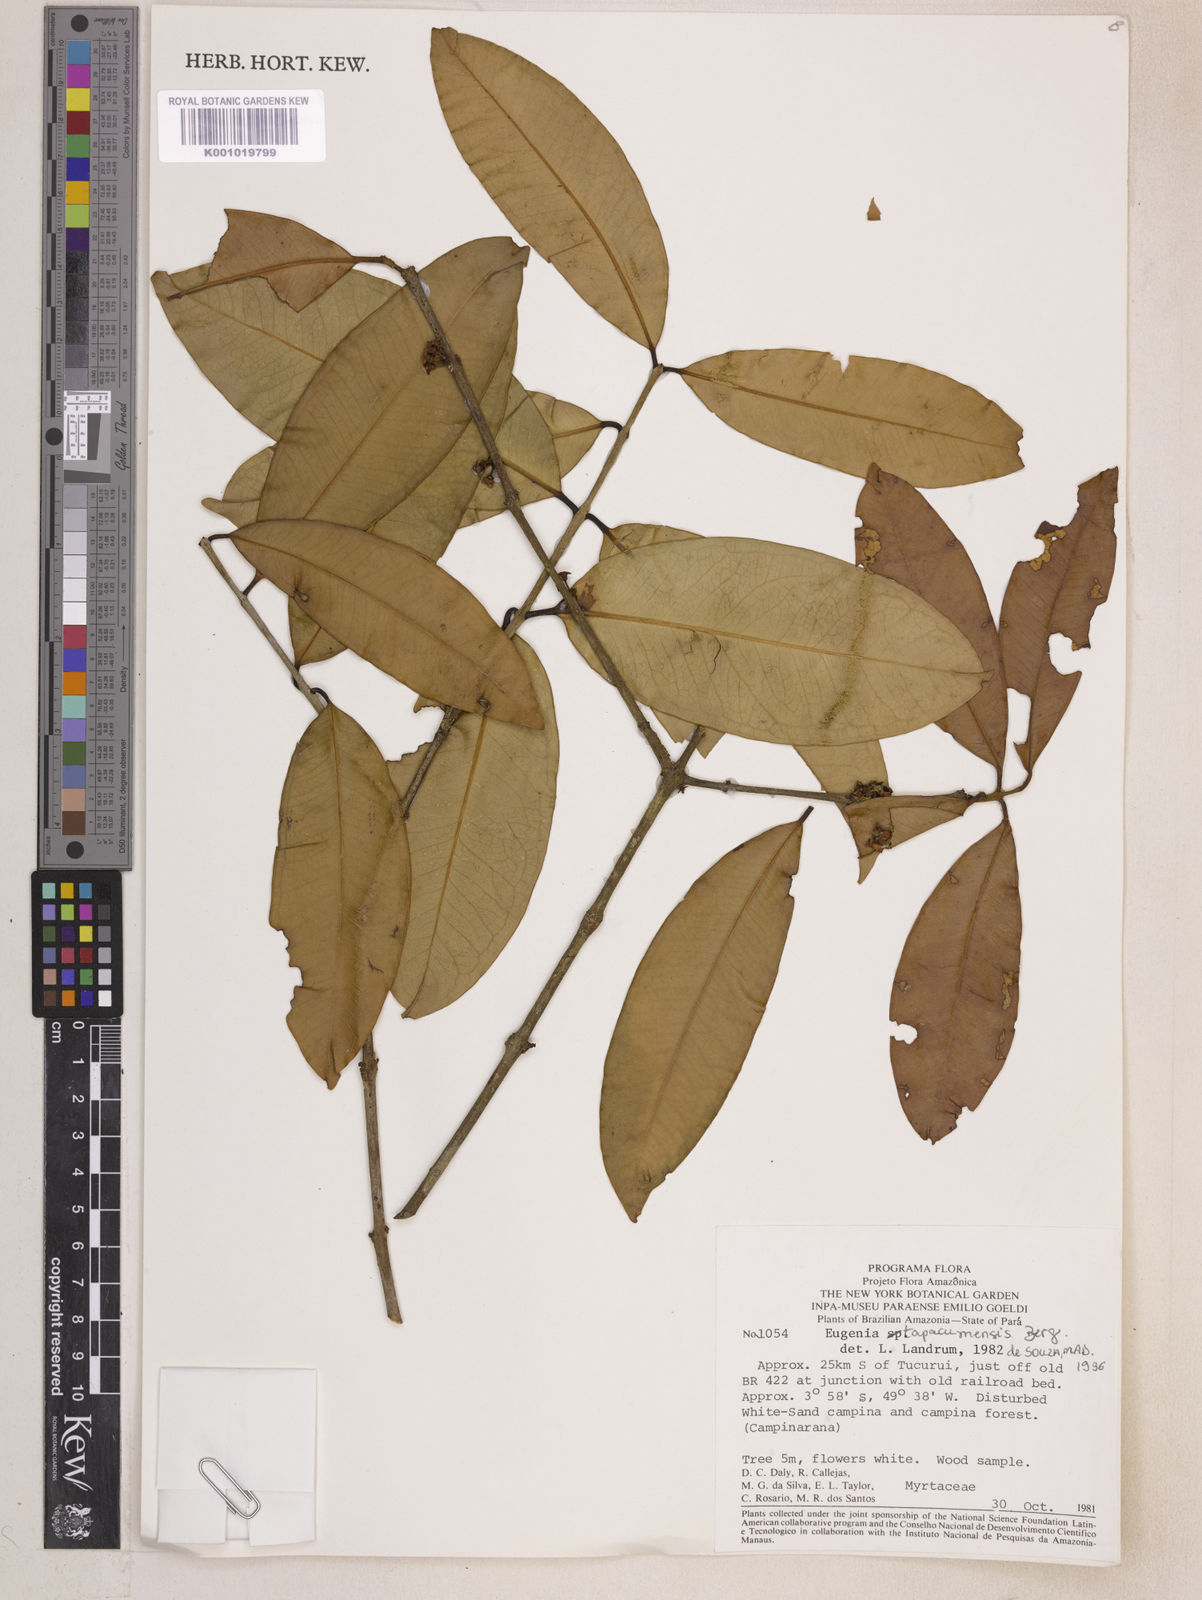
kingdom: Plantae
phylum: Tracheophyta
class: Magnoliopsida
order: Myrtales
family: Myrtaceae
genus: Eugenia
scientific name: Eugenia stictopetala
